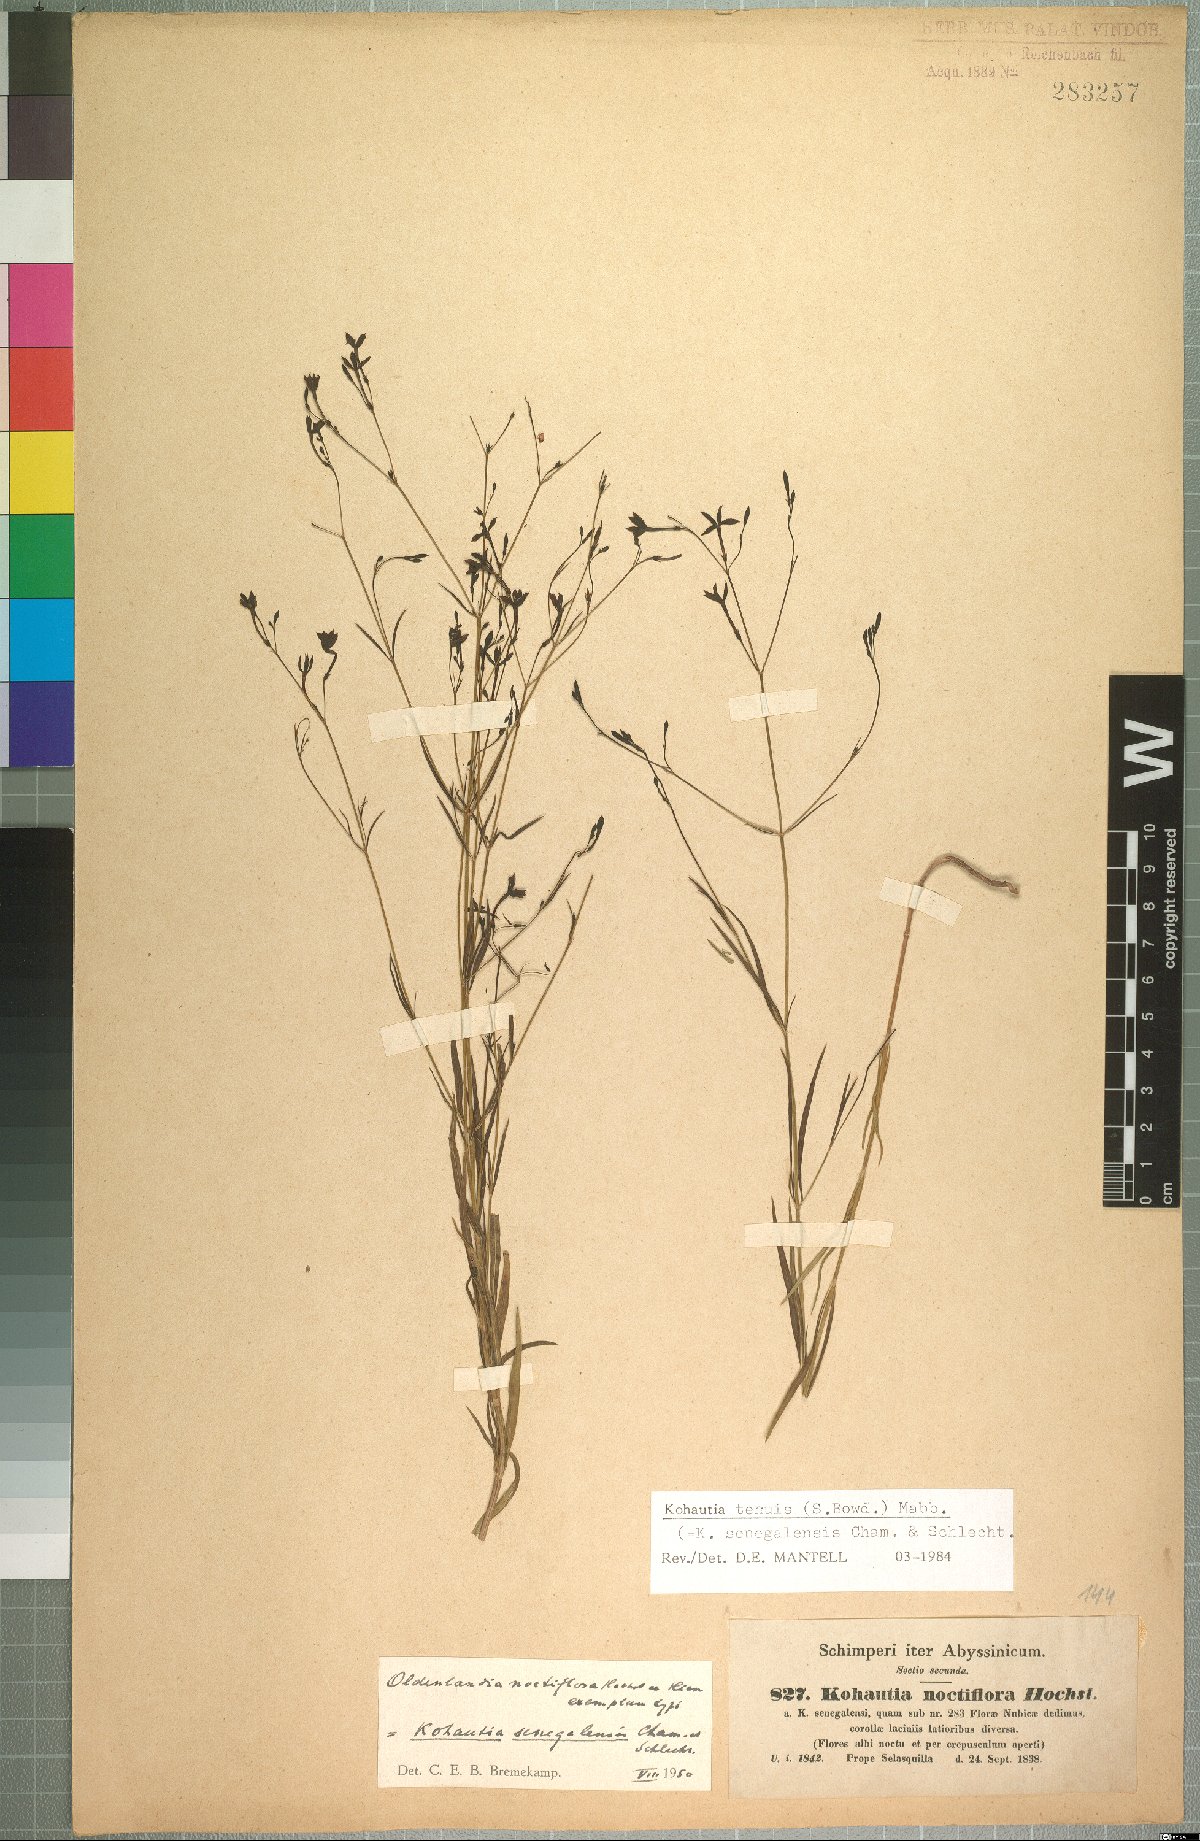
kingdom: Plantae
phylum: Tracheophyta
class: Magnoliopsida
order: Gentianales
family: Rubiaceae
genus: Kohautia
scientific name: Kohautia tenuis
